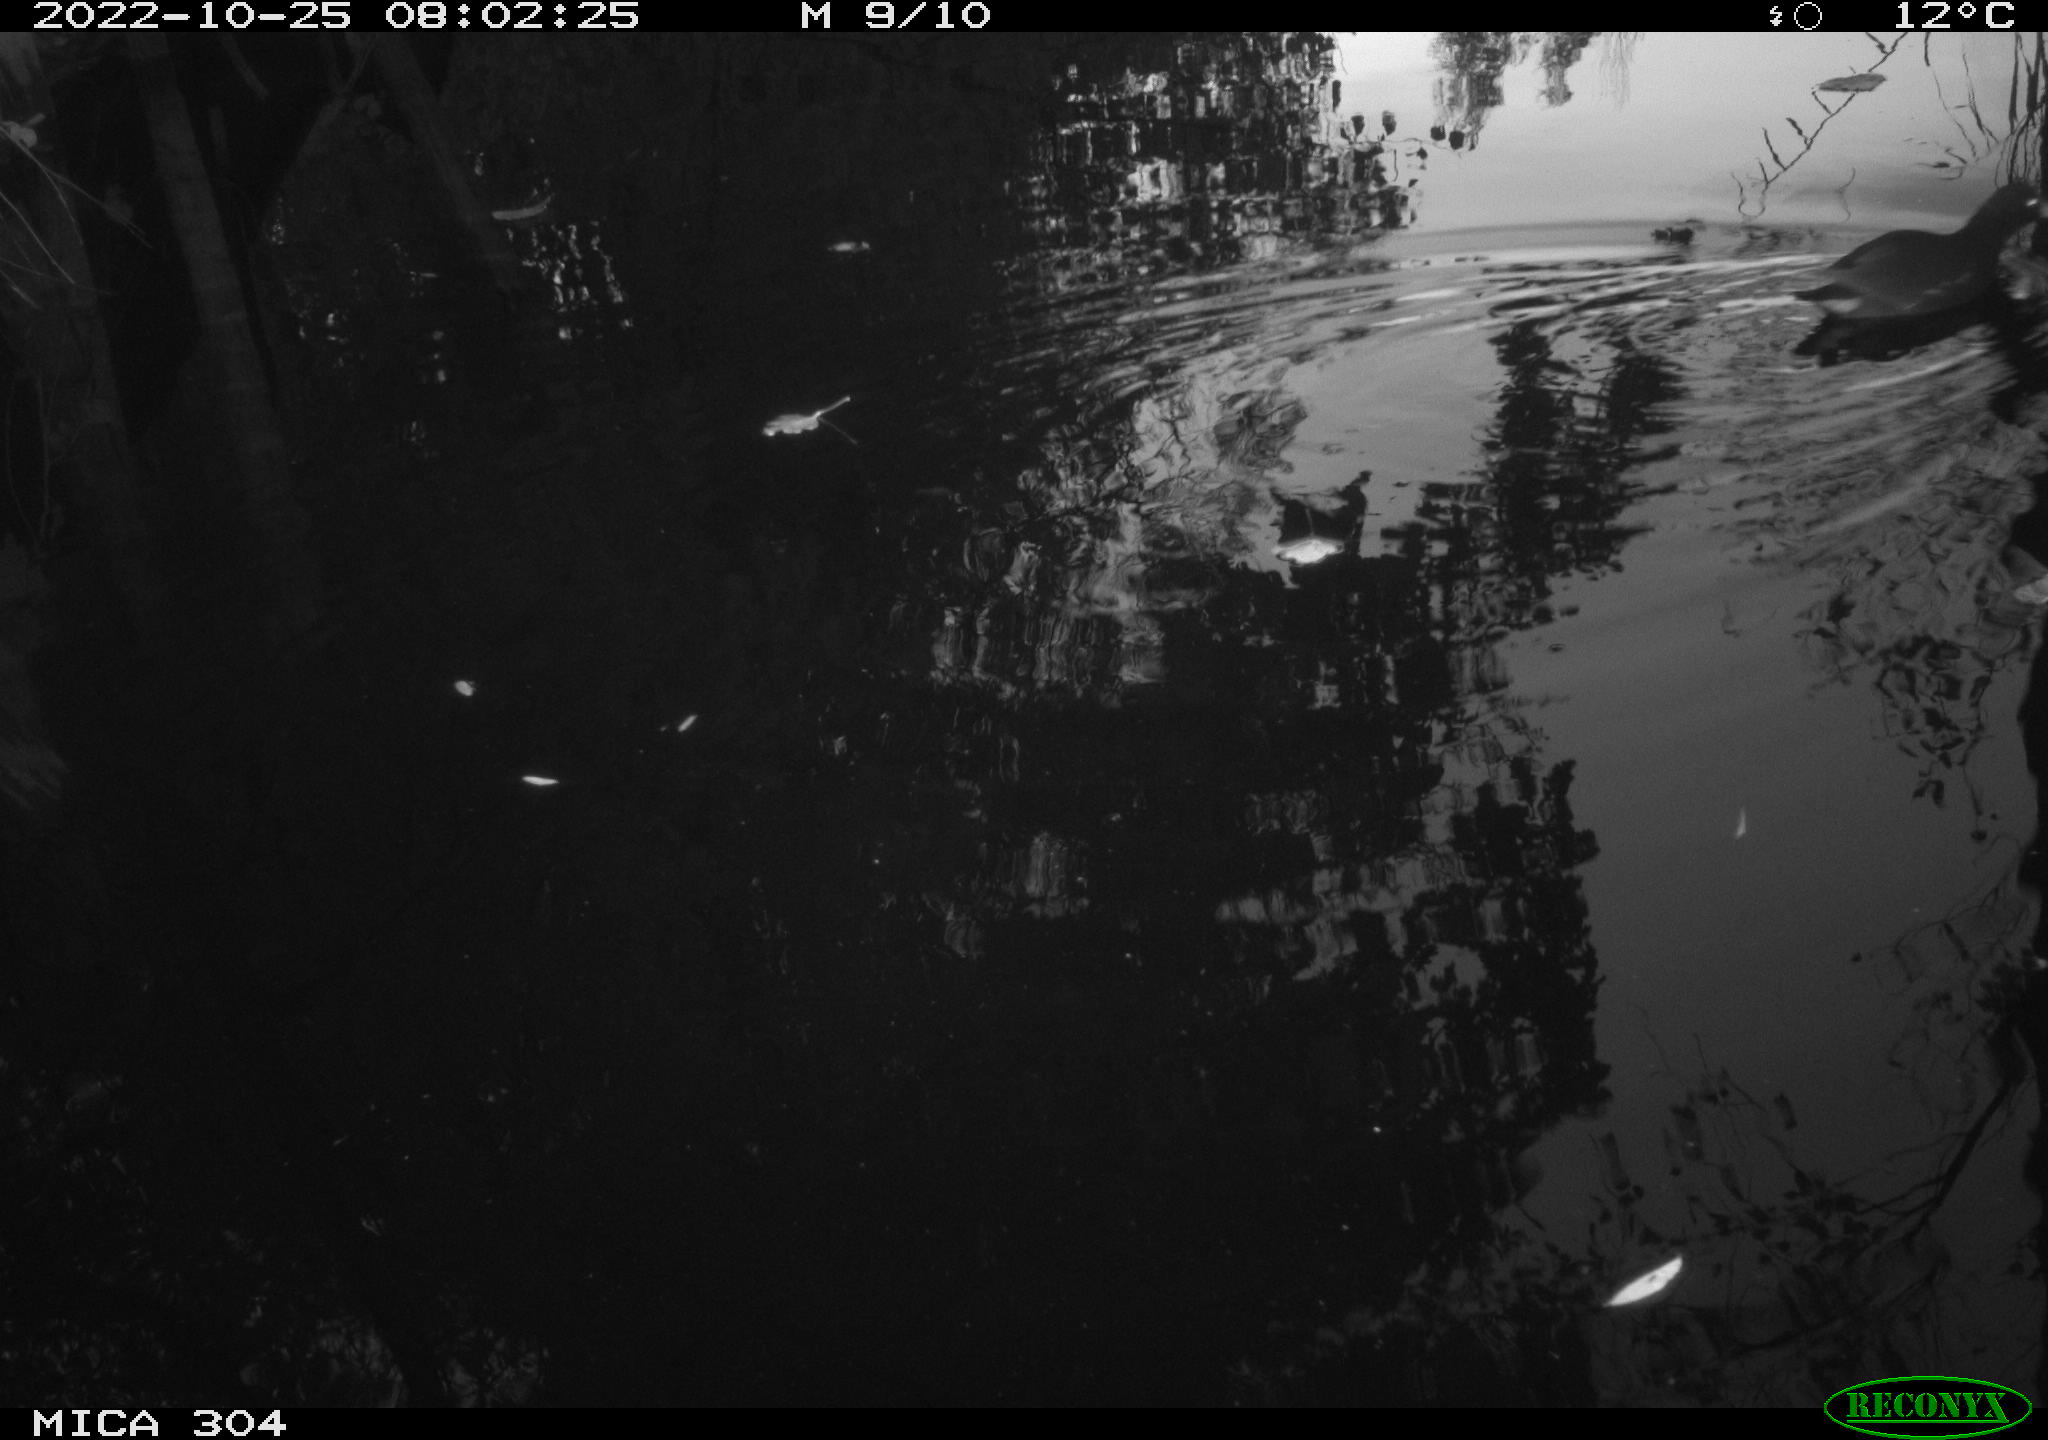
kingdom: Animalia
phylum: Chordata
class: Aves
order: Gruiformes
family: Rallidae
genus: Gallinula
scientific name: Gallinula chloropus
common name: Common moorhen
